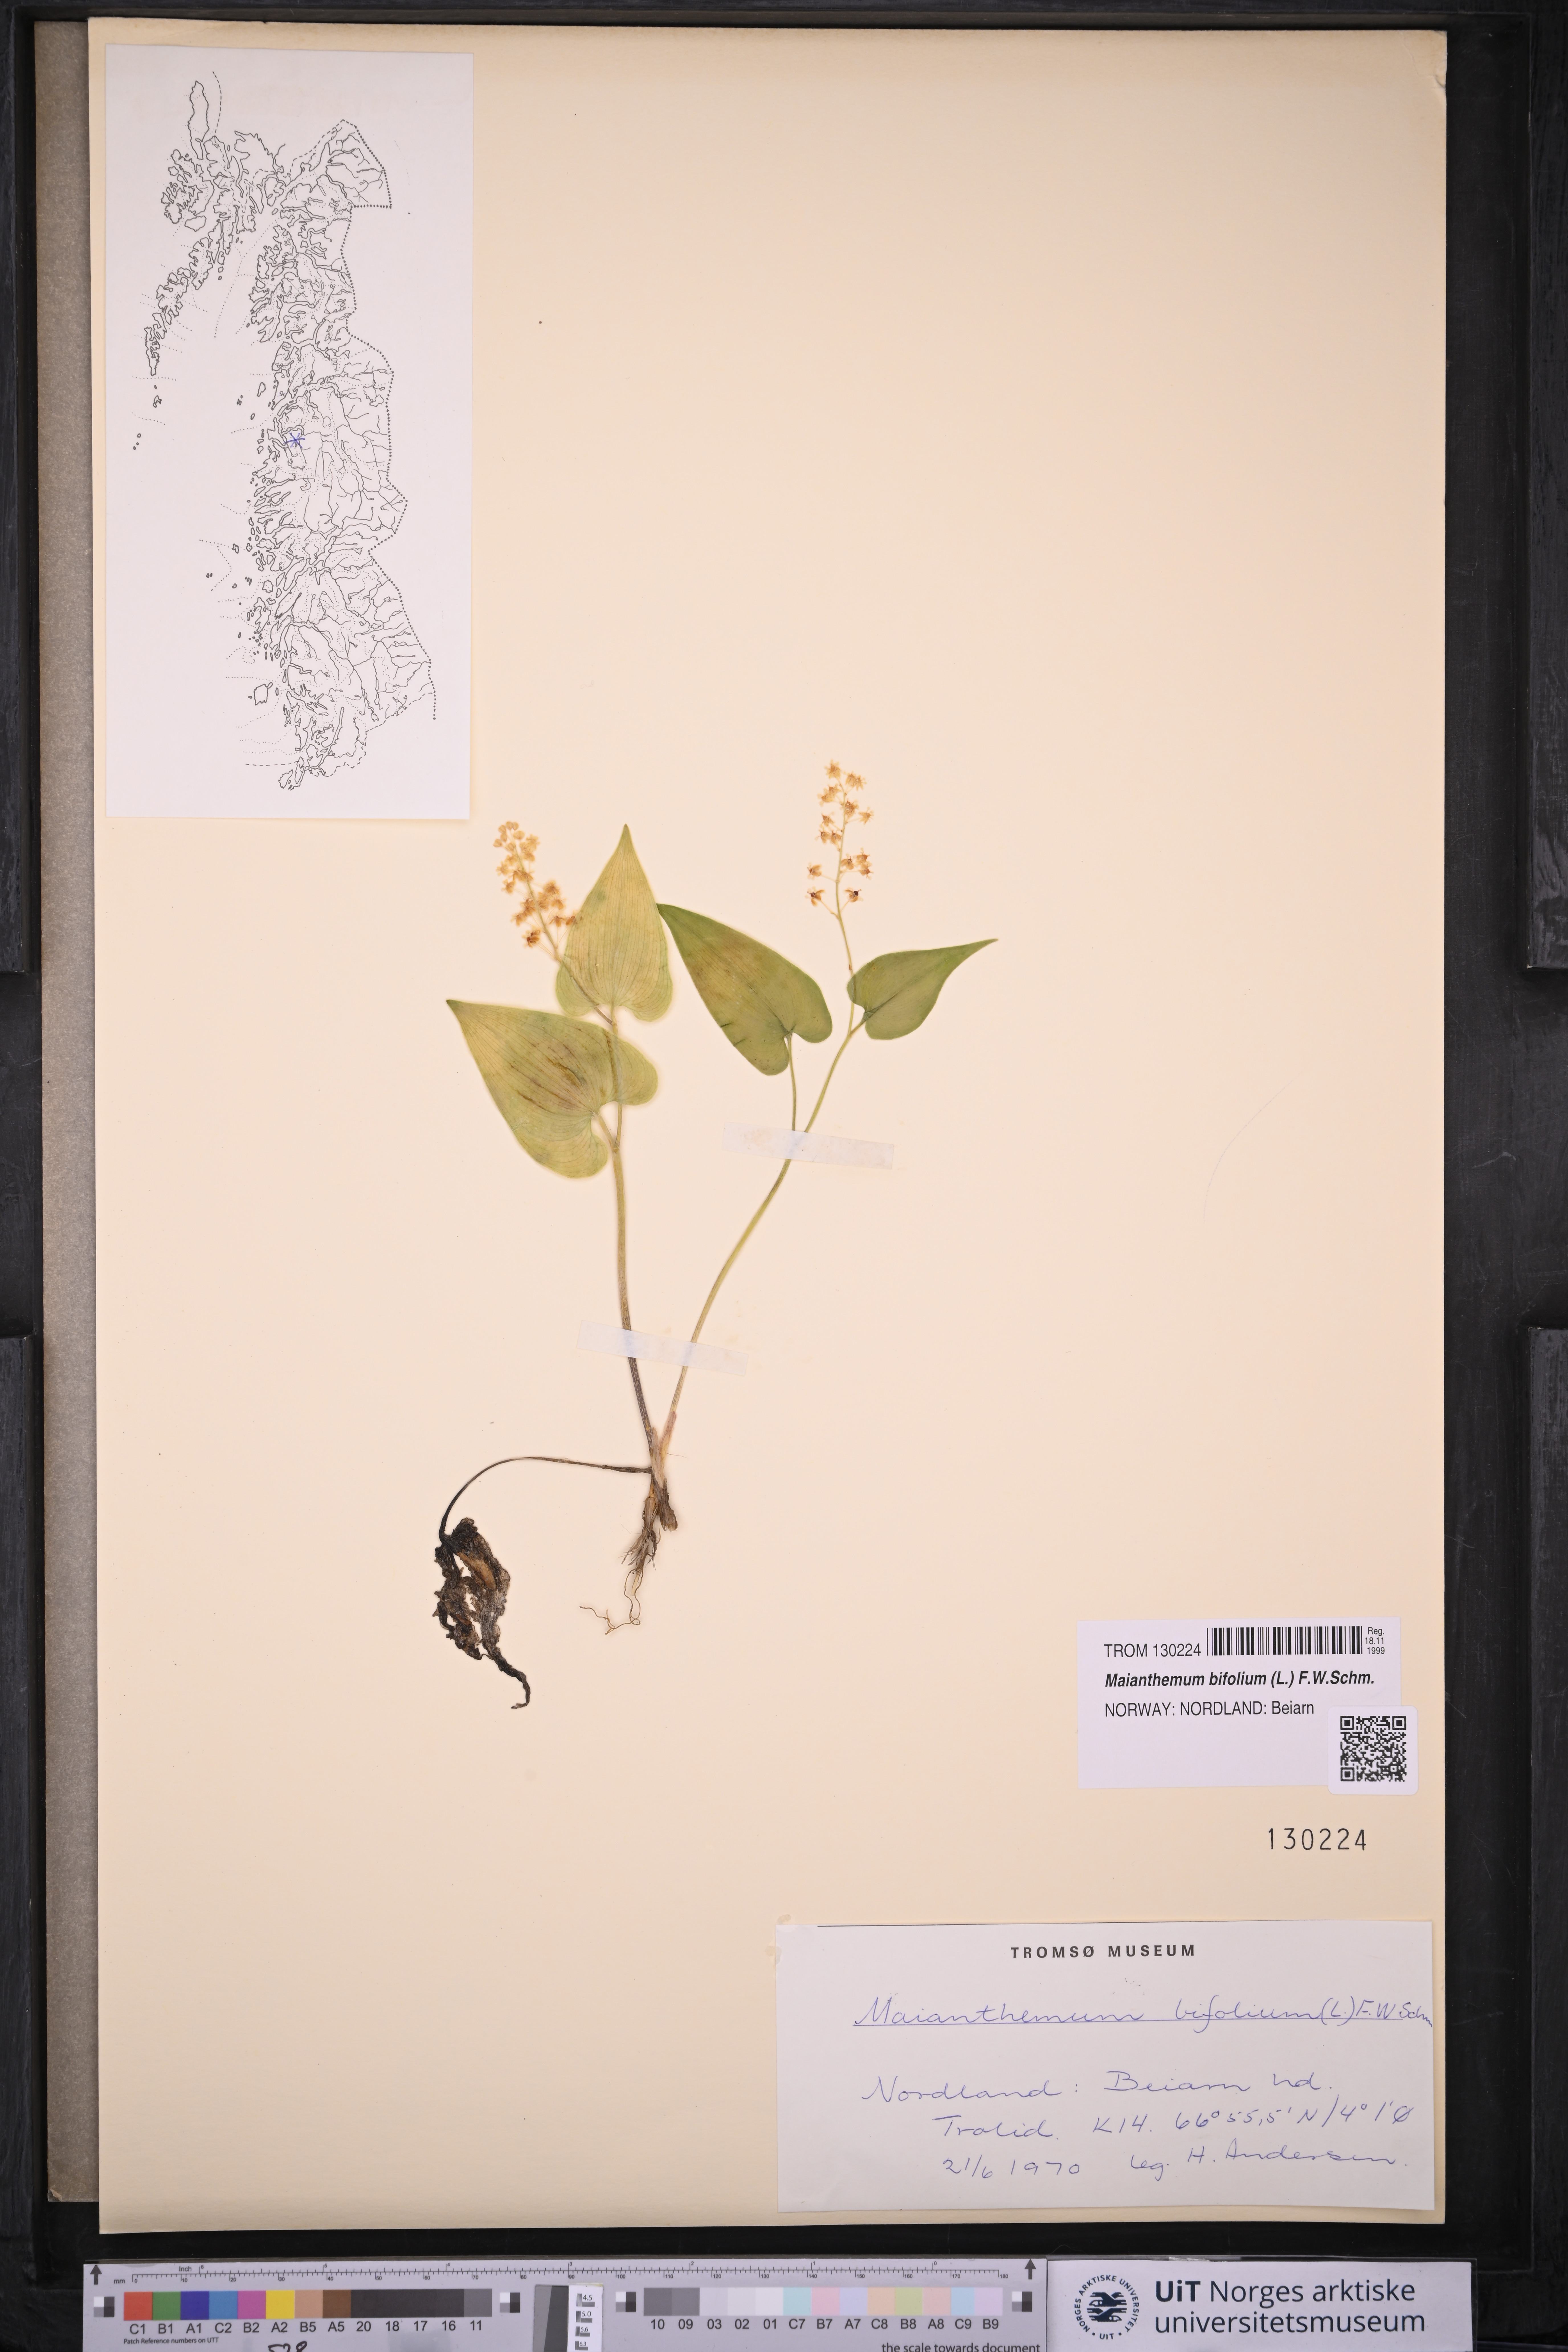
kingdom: Plantae
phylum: Tracheophyta
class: Liliopsida
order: Asparagales
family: Asparagaceae
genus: Maianthemum
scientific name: Maianthemum bifolium
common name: May lily
